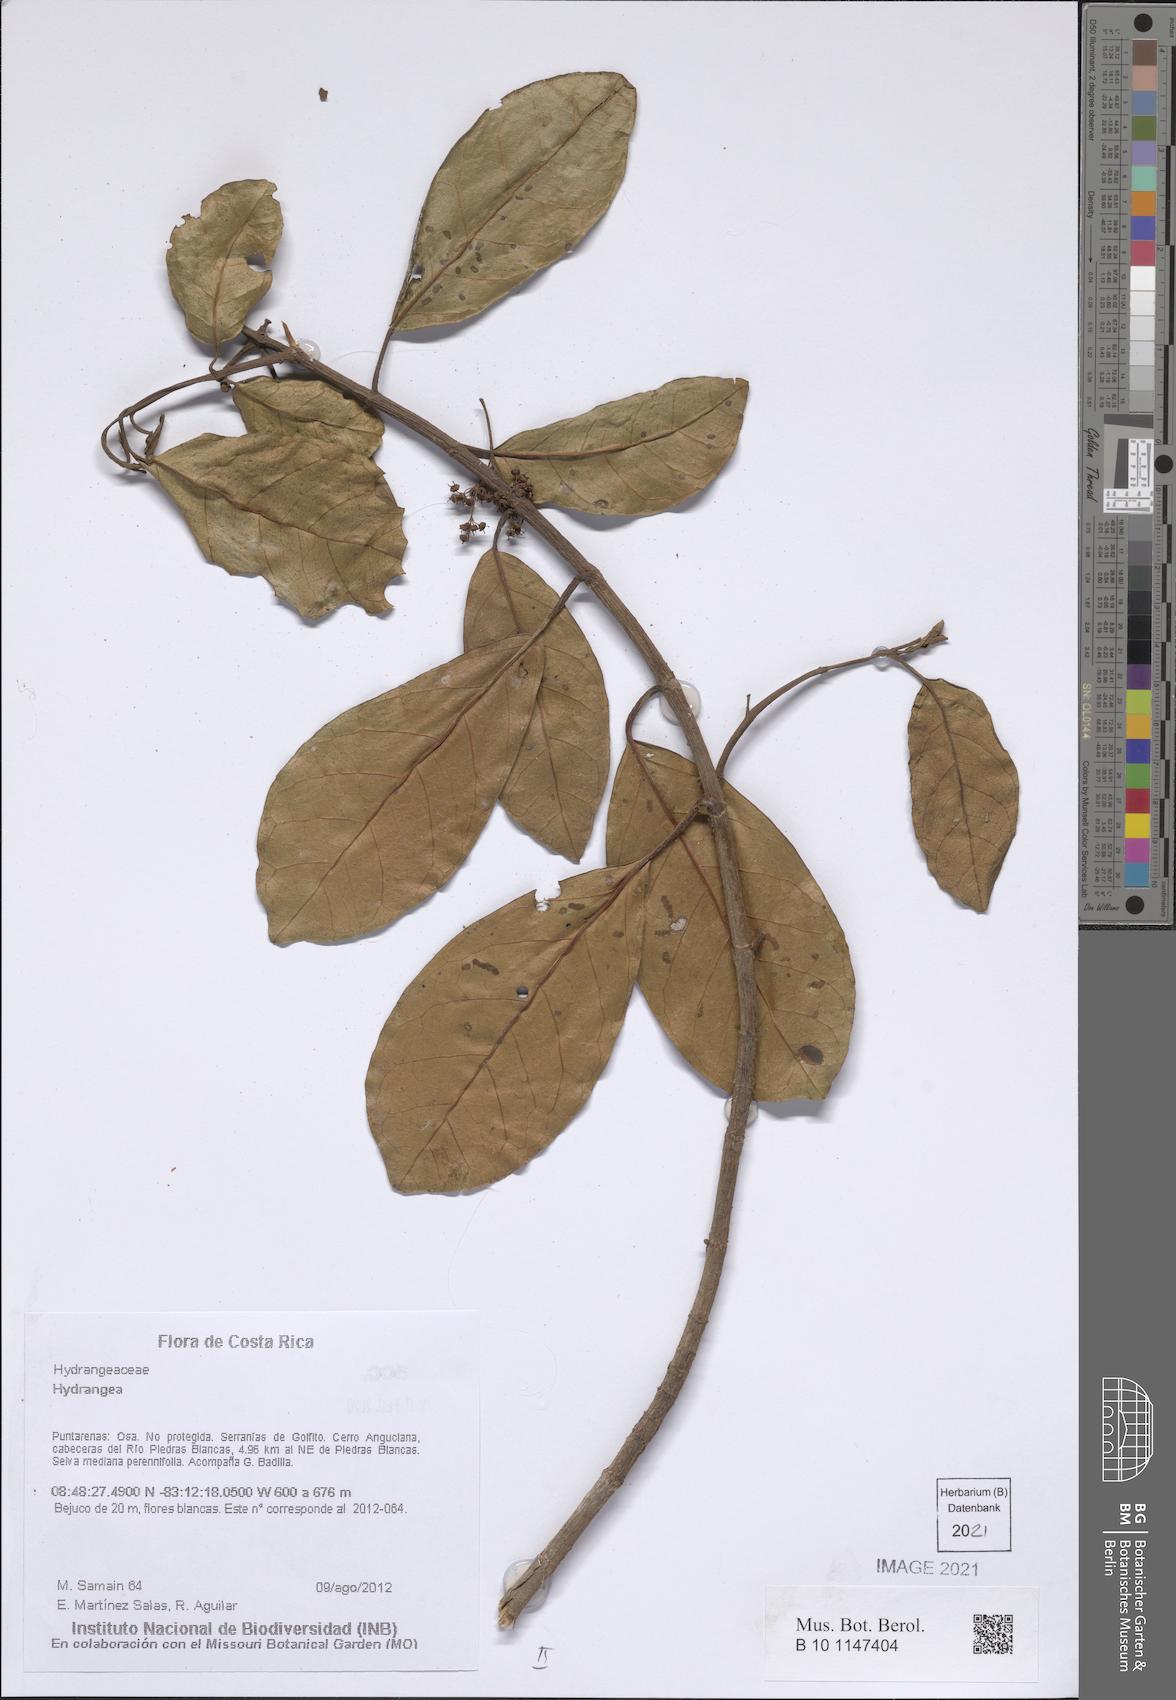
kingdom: Plantae
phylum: Tracheophyta
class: Magnoliopsida
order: Cornales
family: Hydrangeaceae
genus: Hydrangea
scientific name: Hydrangea
